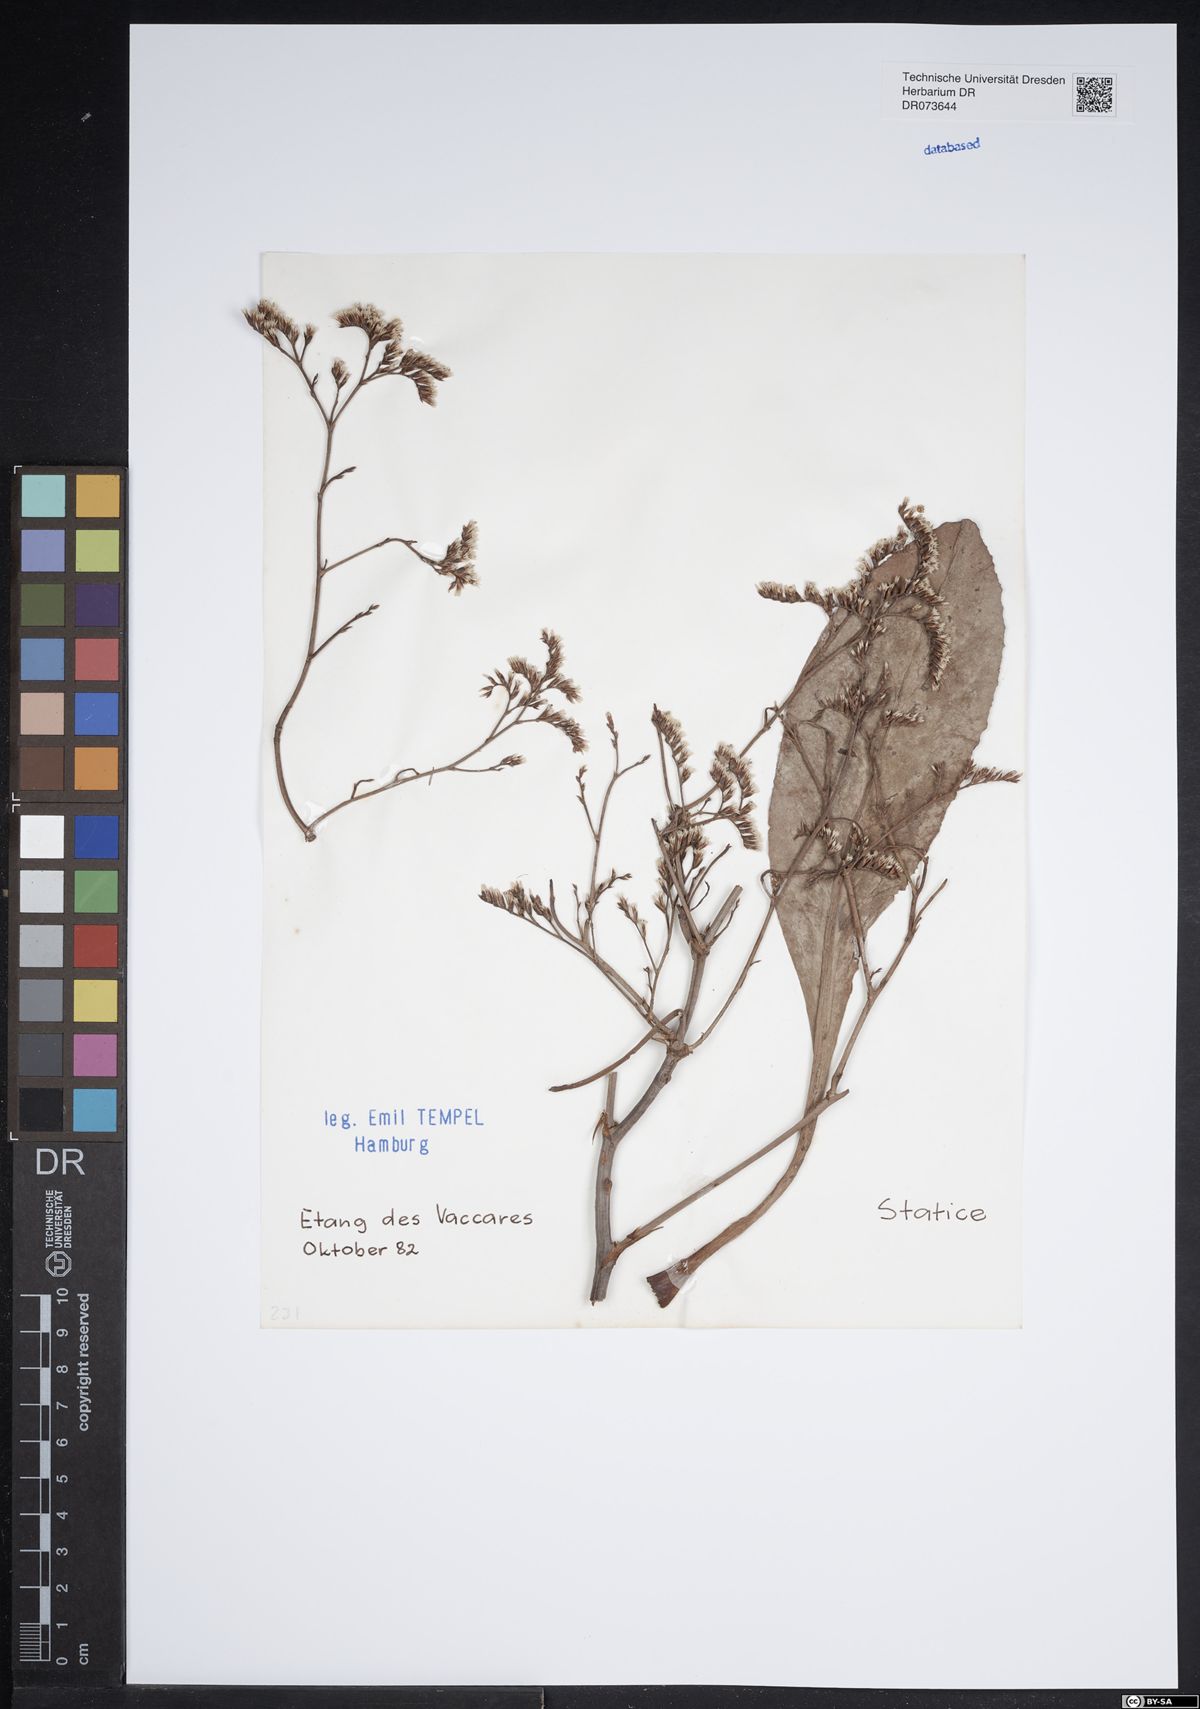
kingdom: Plantae
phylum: Tracheophyta
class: Magnoliopsida
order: Caryophyllales
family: Plumbaginaceae
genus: Armeria
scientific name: Armeria
